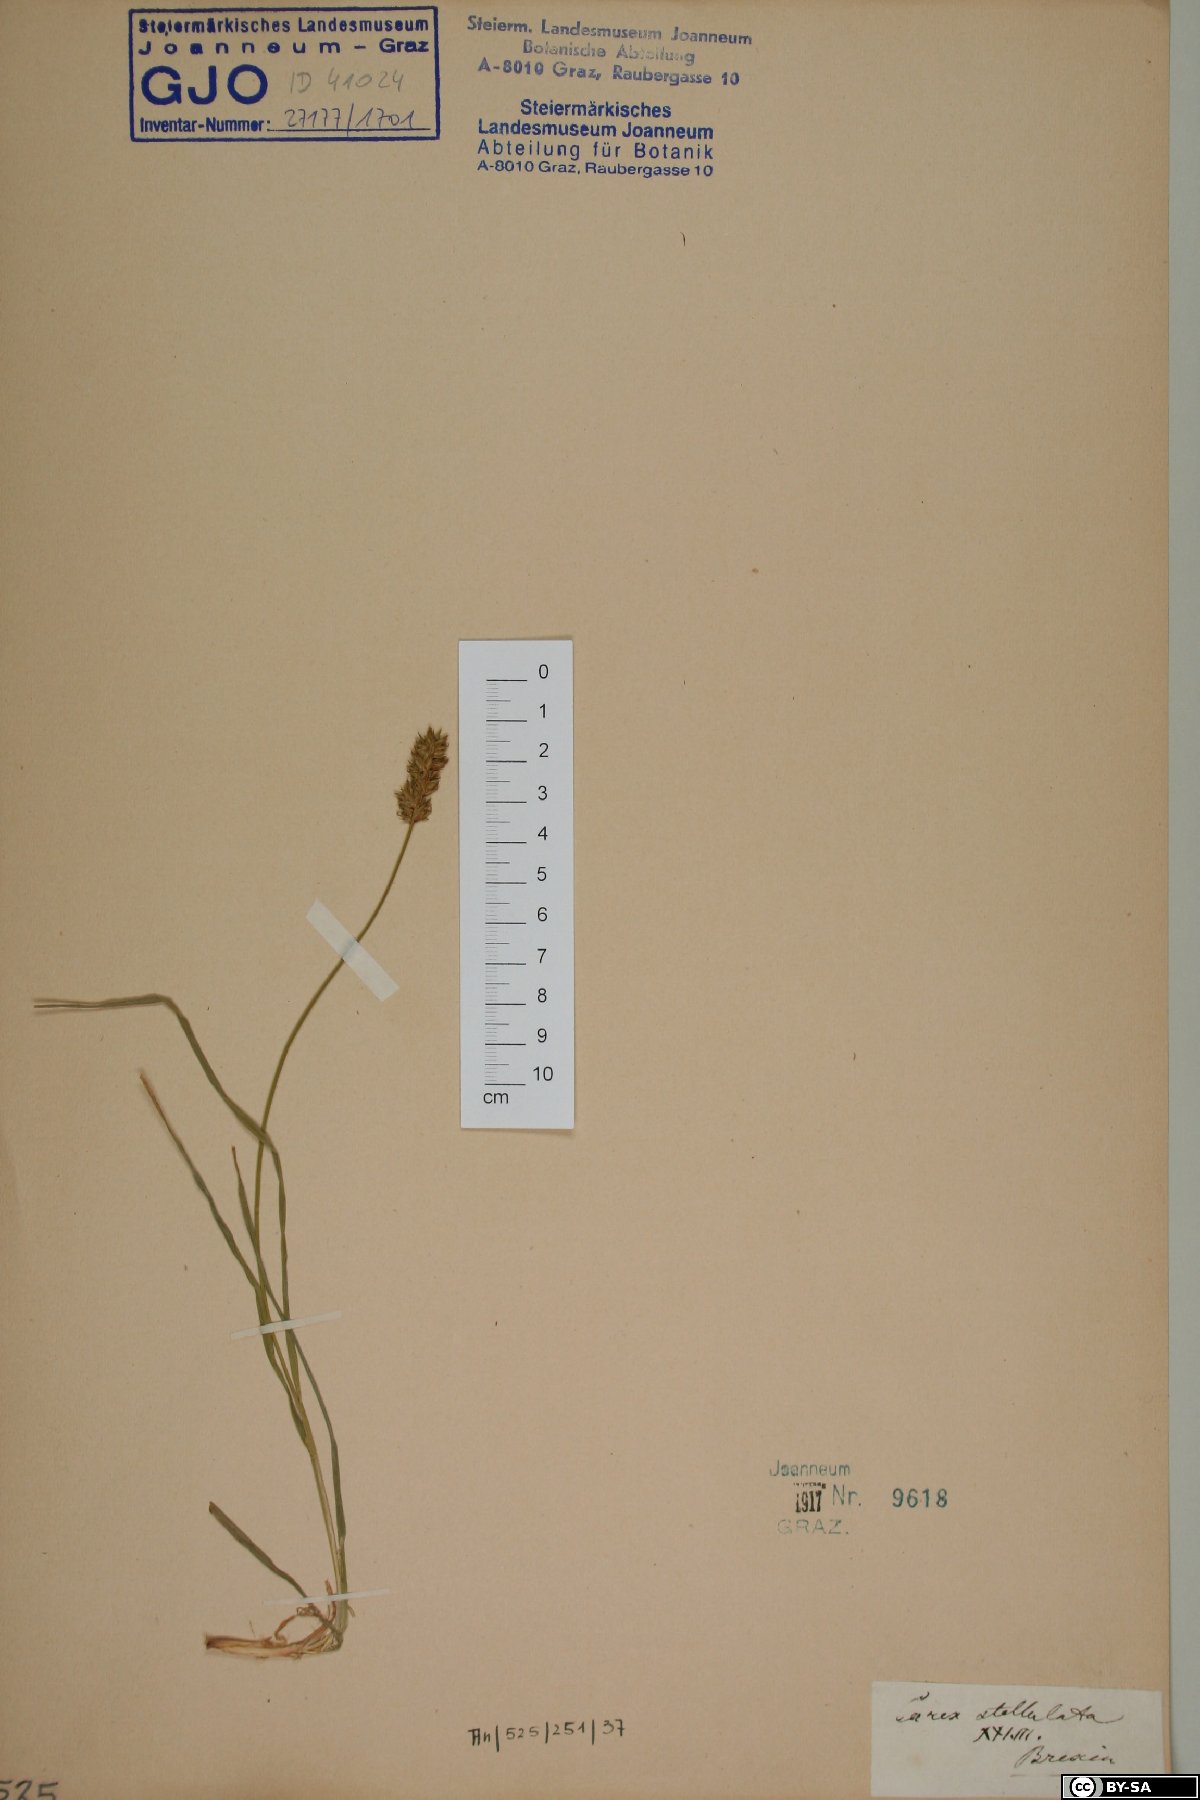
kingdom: Plantae
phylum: Tracheophyta
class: Liliopsida
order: Poales
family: Cyperaceae
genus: Carex
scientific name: Carex echinata
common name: Star sedge
